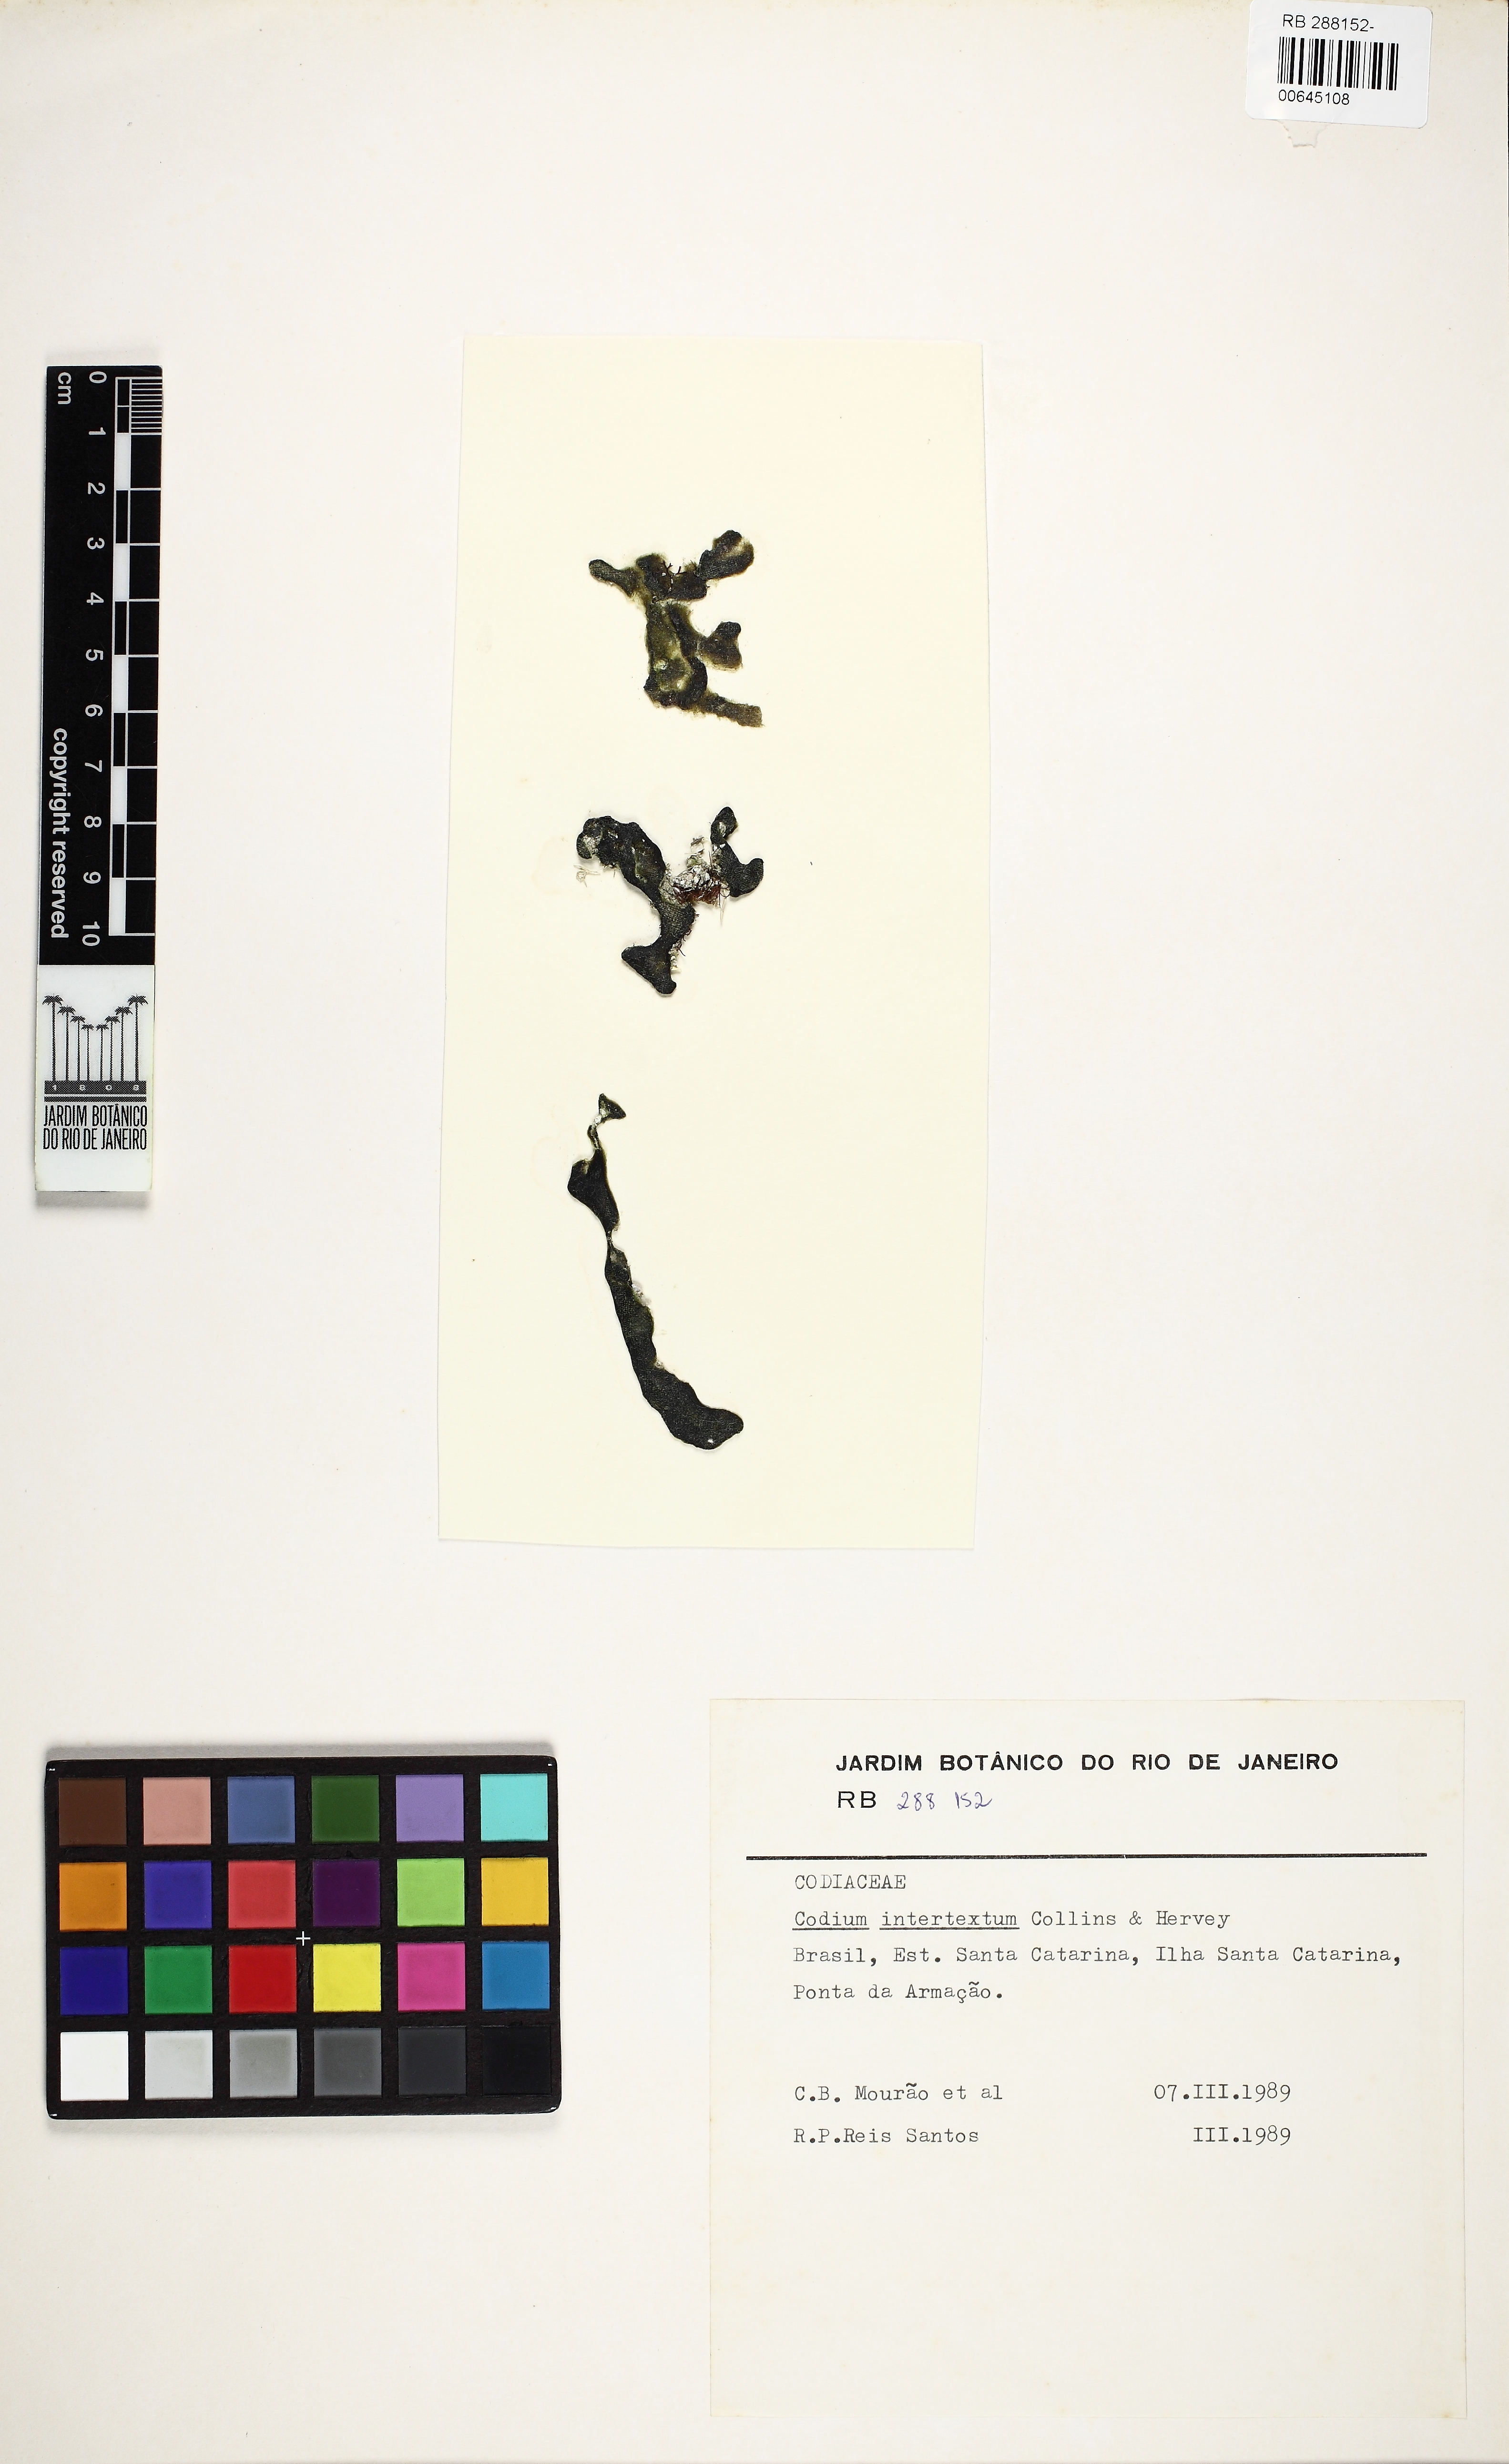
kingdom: Plantae
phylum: Chlorophyta
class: Ulvophyceae
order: Bryopsidales
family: Codiaceae
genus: Codium
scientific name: Codium intertextum
